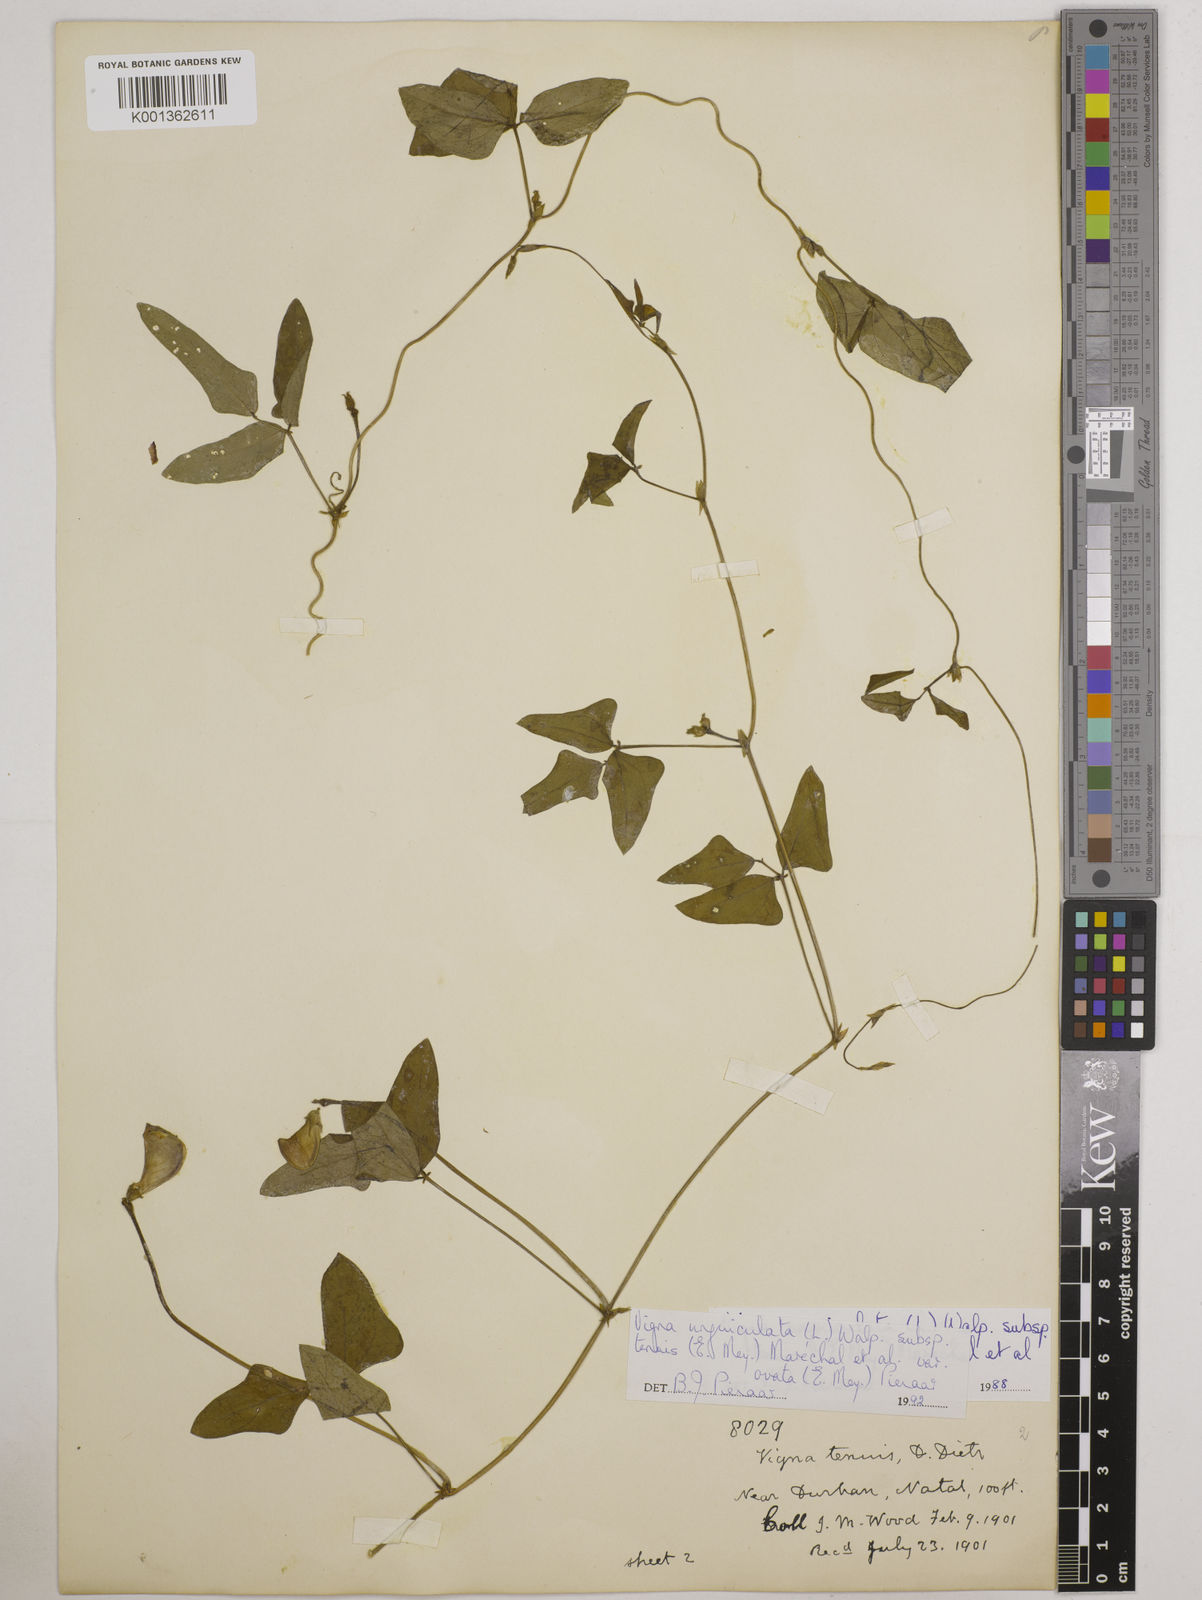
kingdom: Plantae
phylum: Tracheophyta
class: Magnoliopsida
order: Fabales
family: Fabaceae
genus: Vigna
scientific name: Vigna
